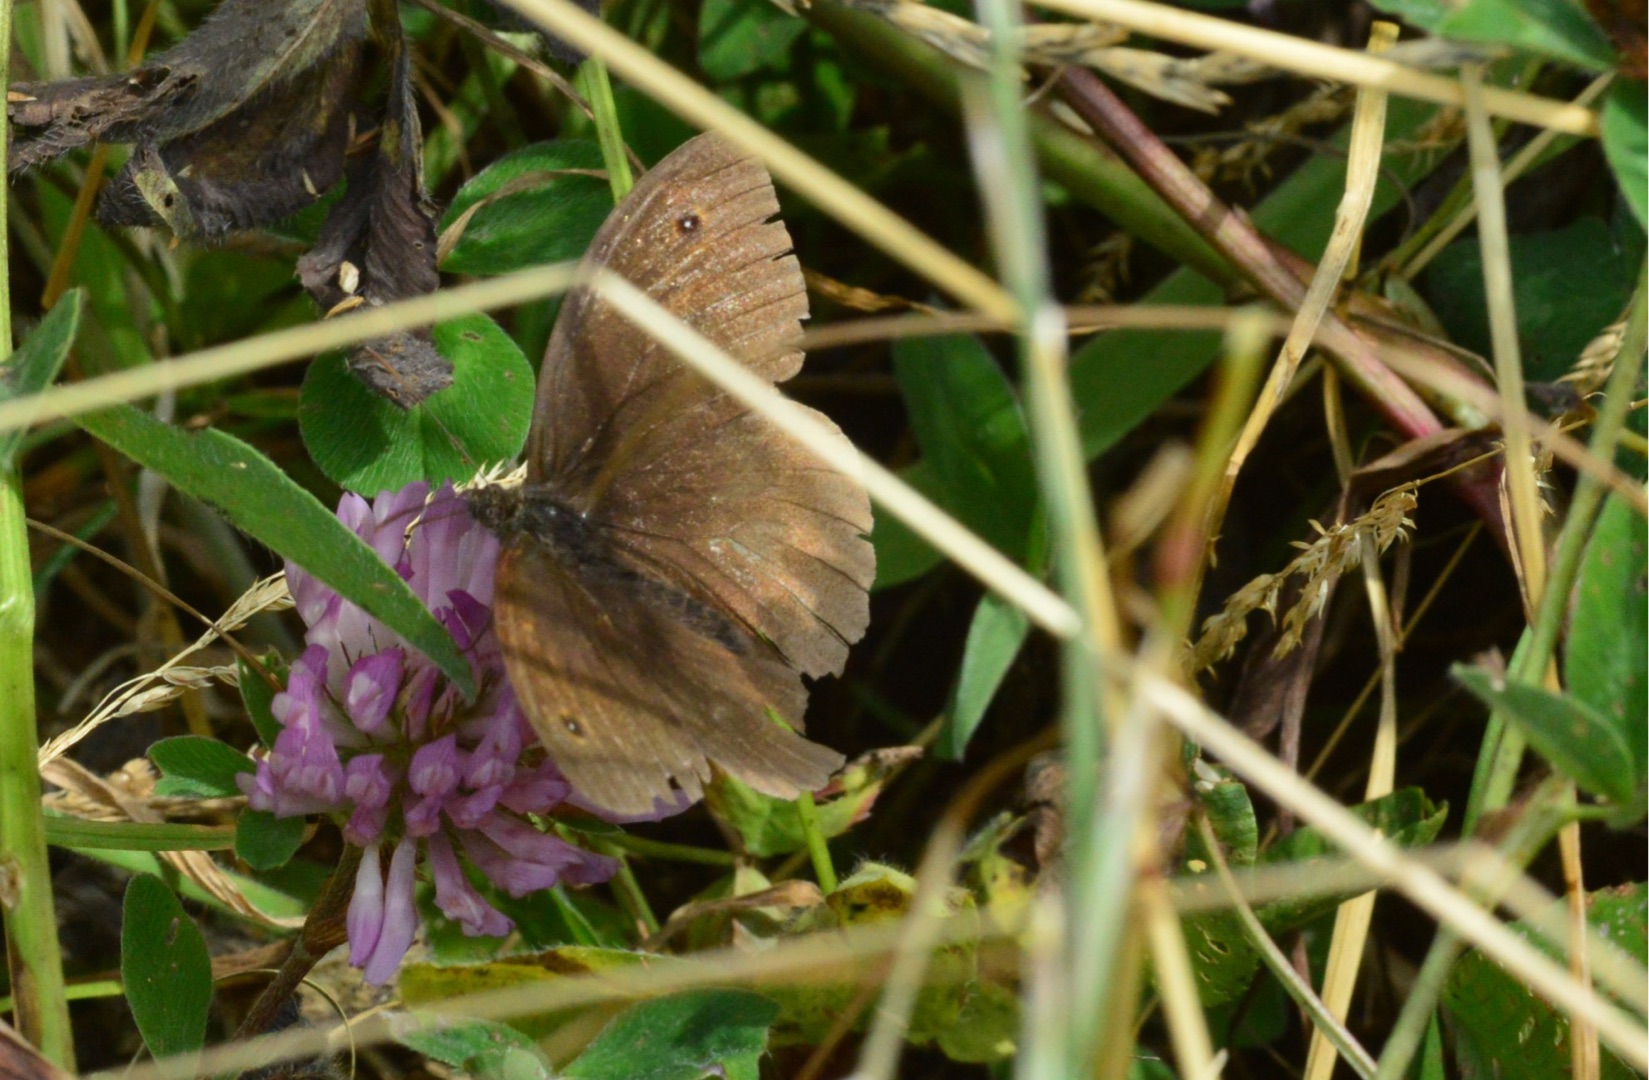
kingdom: Animalia
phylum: Arthropoda
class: Insecta
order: Lepidoptera
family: Nymphalidae
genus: Maniola
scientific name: Maniola jurtina
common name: Græsrandøje
